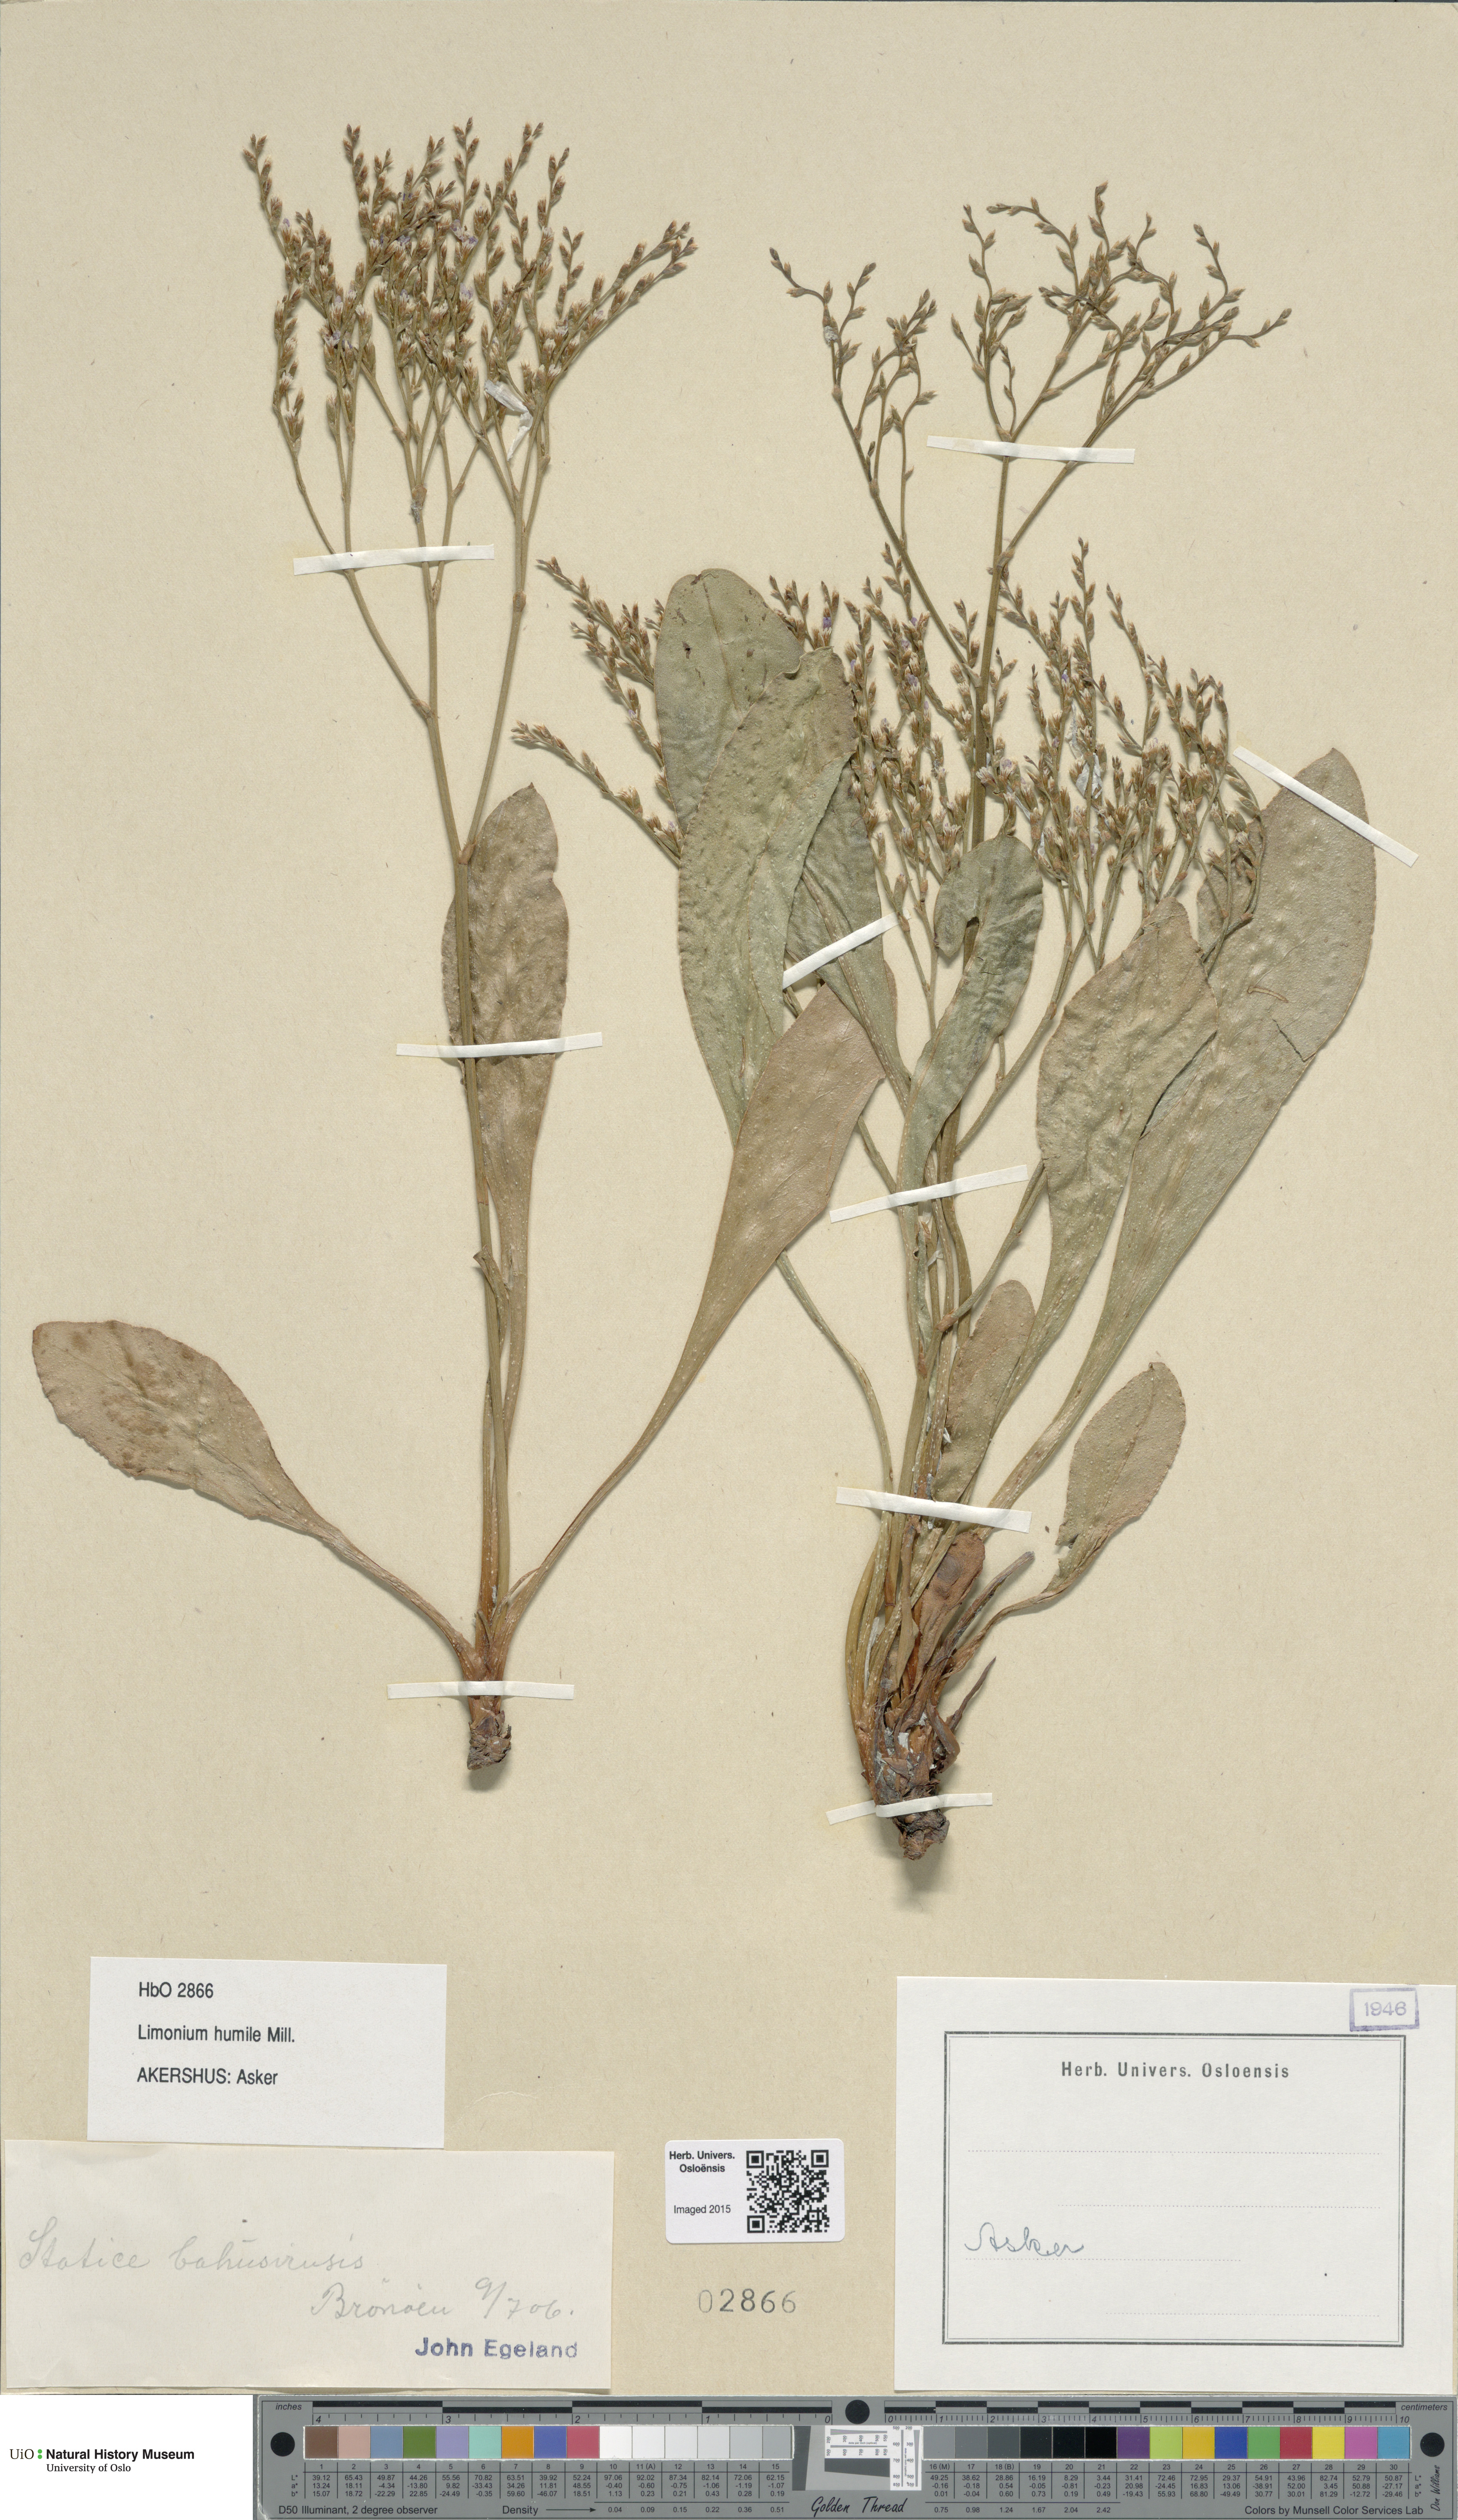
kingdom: Plantae
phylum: Tracheophyta
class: Magnoliopsida
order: Caryophyllales
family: Plumbaginaceae
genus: Limonium
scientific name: Limonium humile
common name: Lax-flowered sea-lavender
